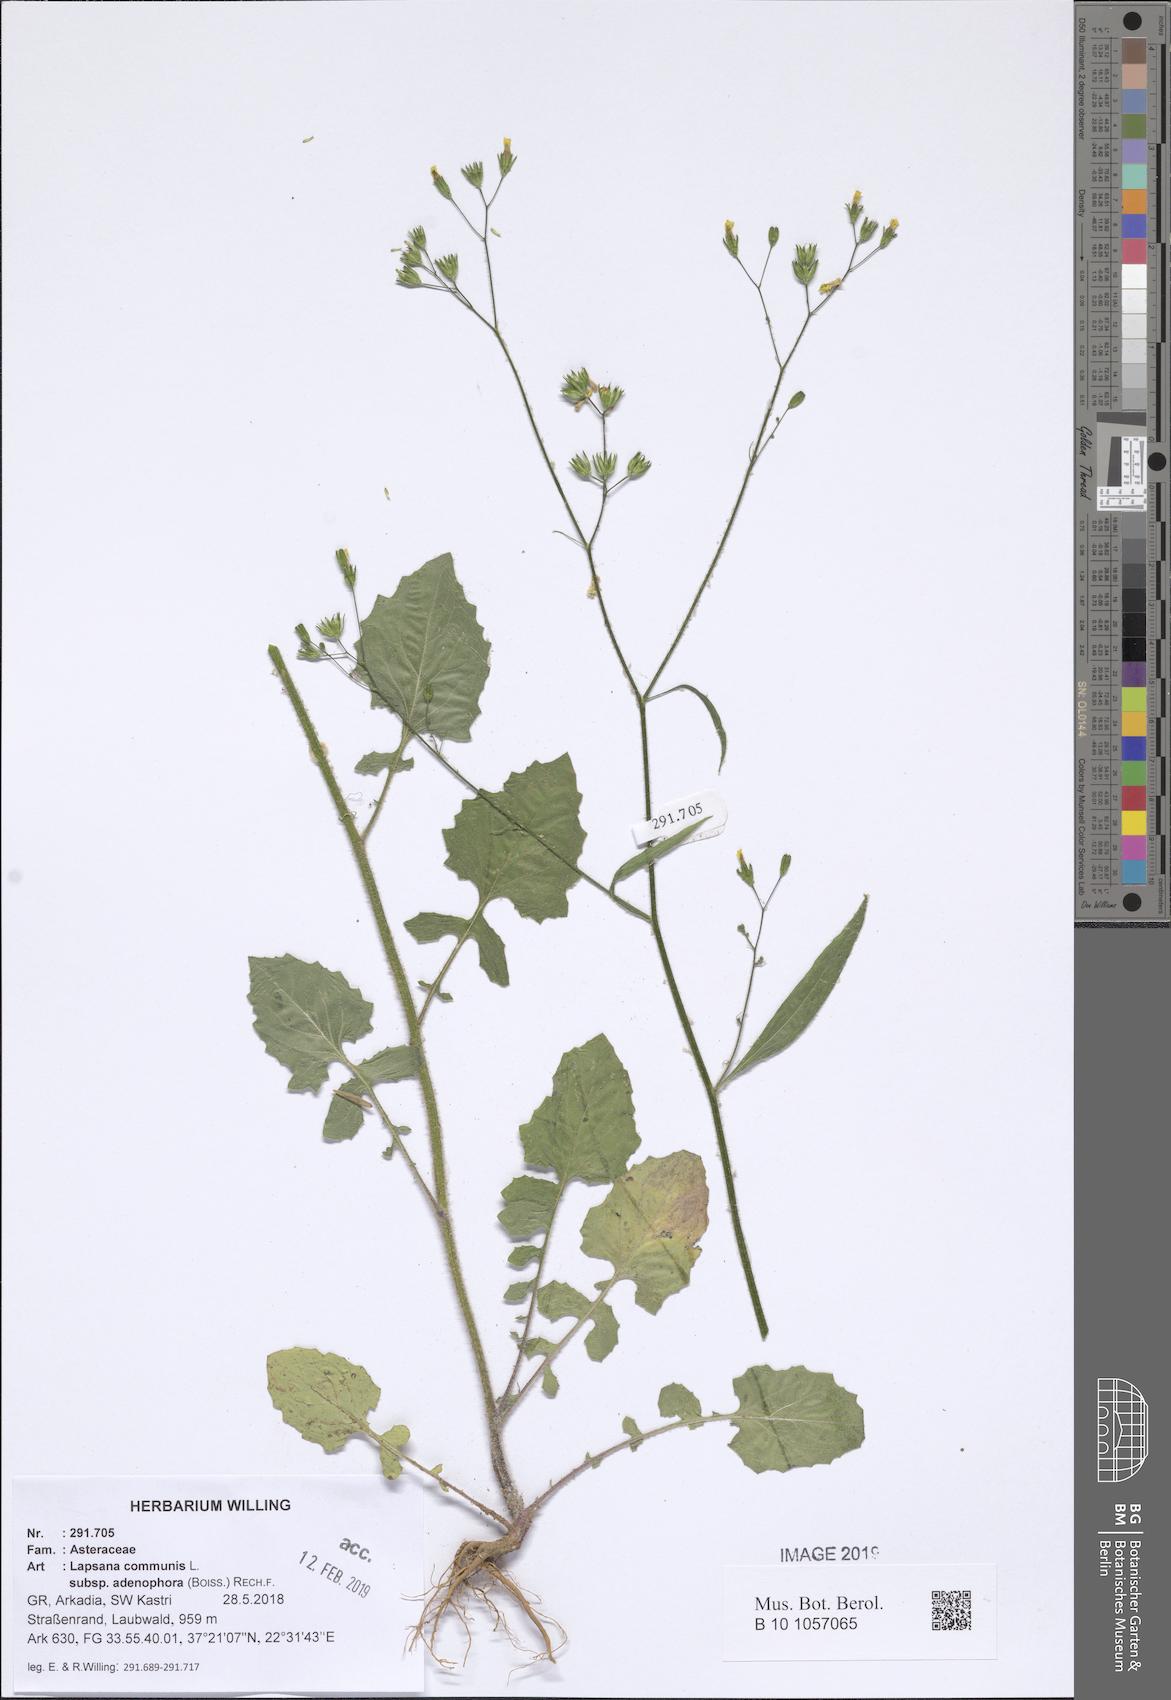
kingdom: Plantae
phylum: Tracheophyta
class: Magnoliopsida
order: Asterales
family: Asteraceae
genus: Lapsana
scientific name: Lapsana communis
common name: Nipplewort
